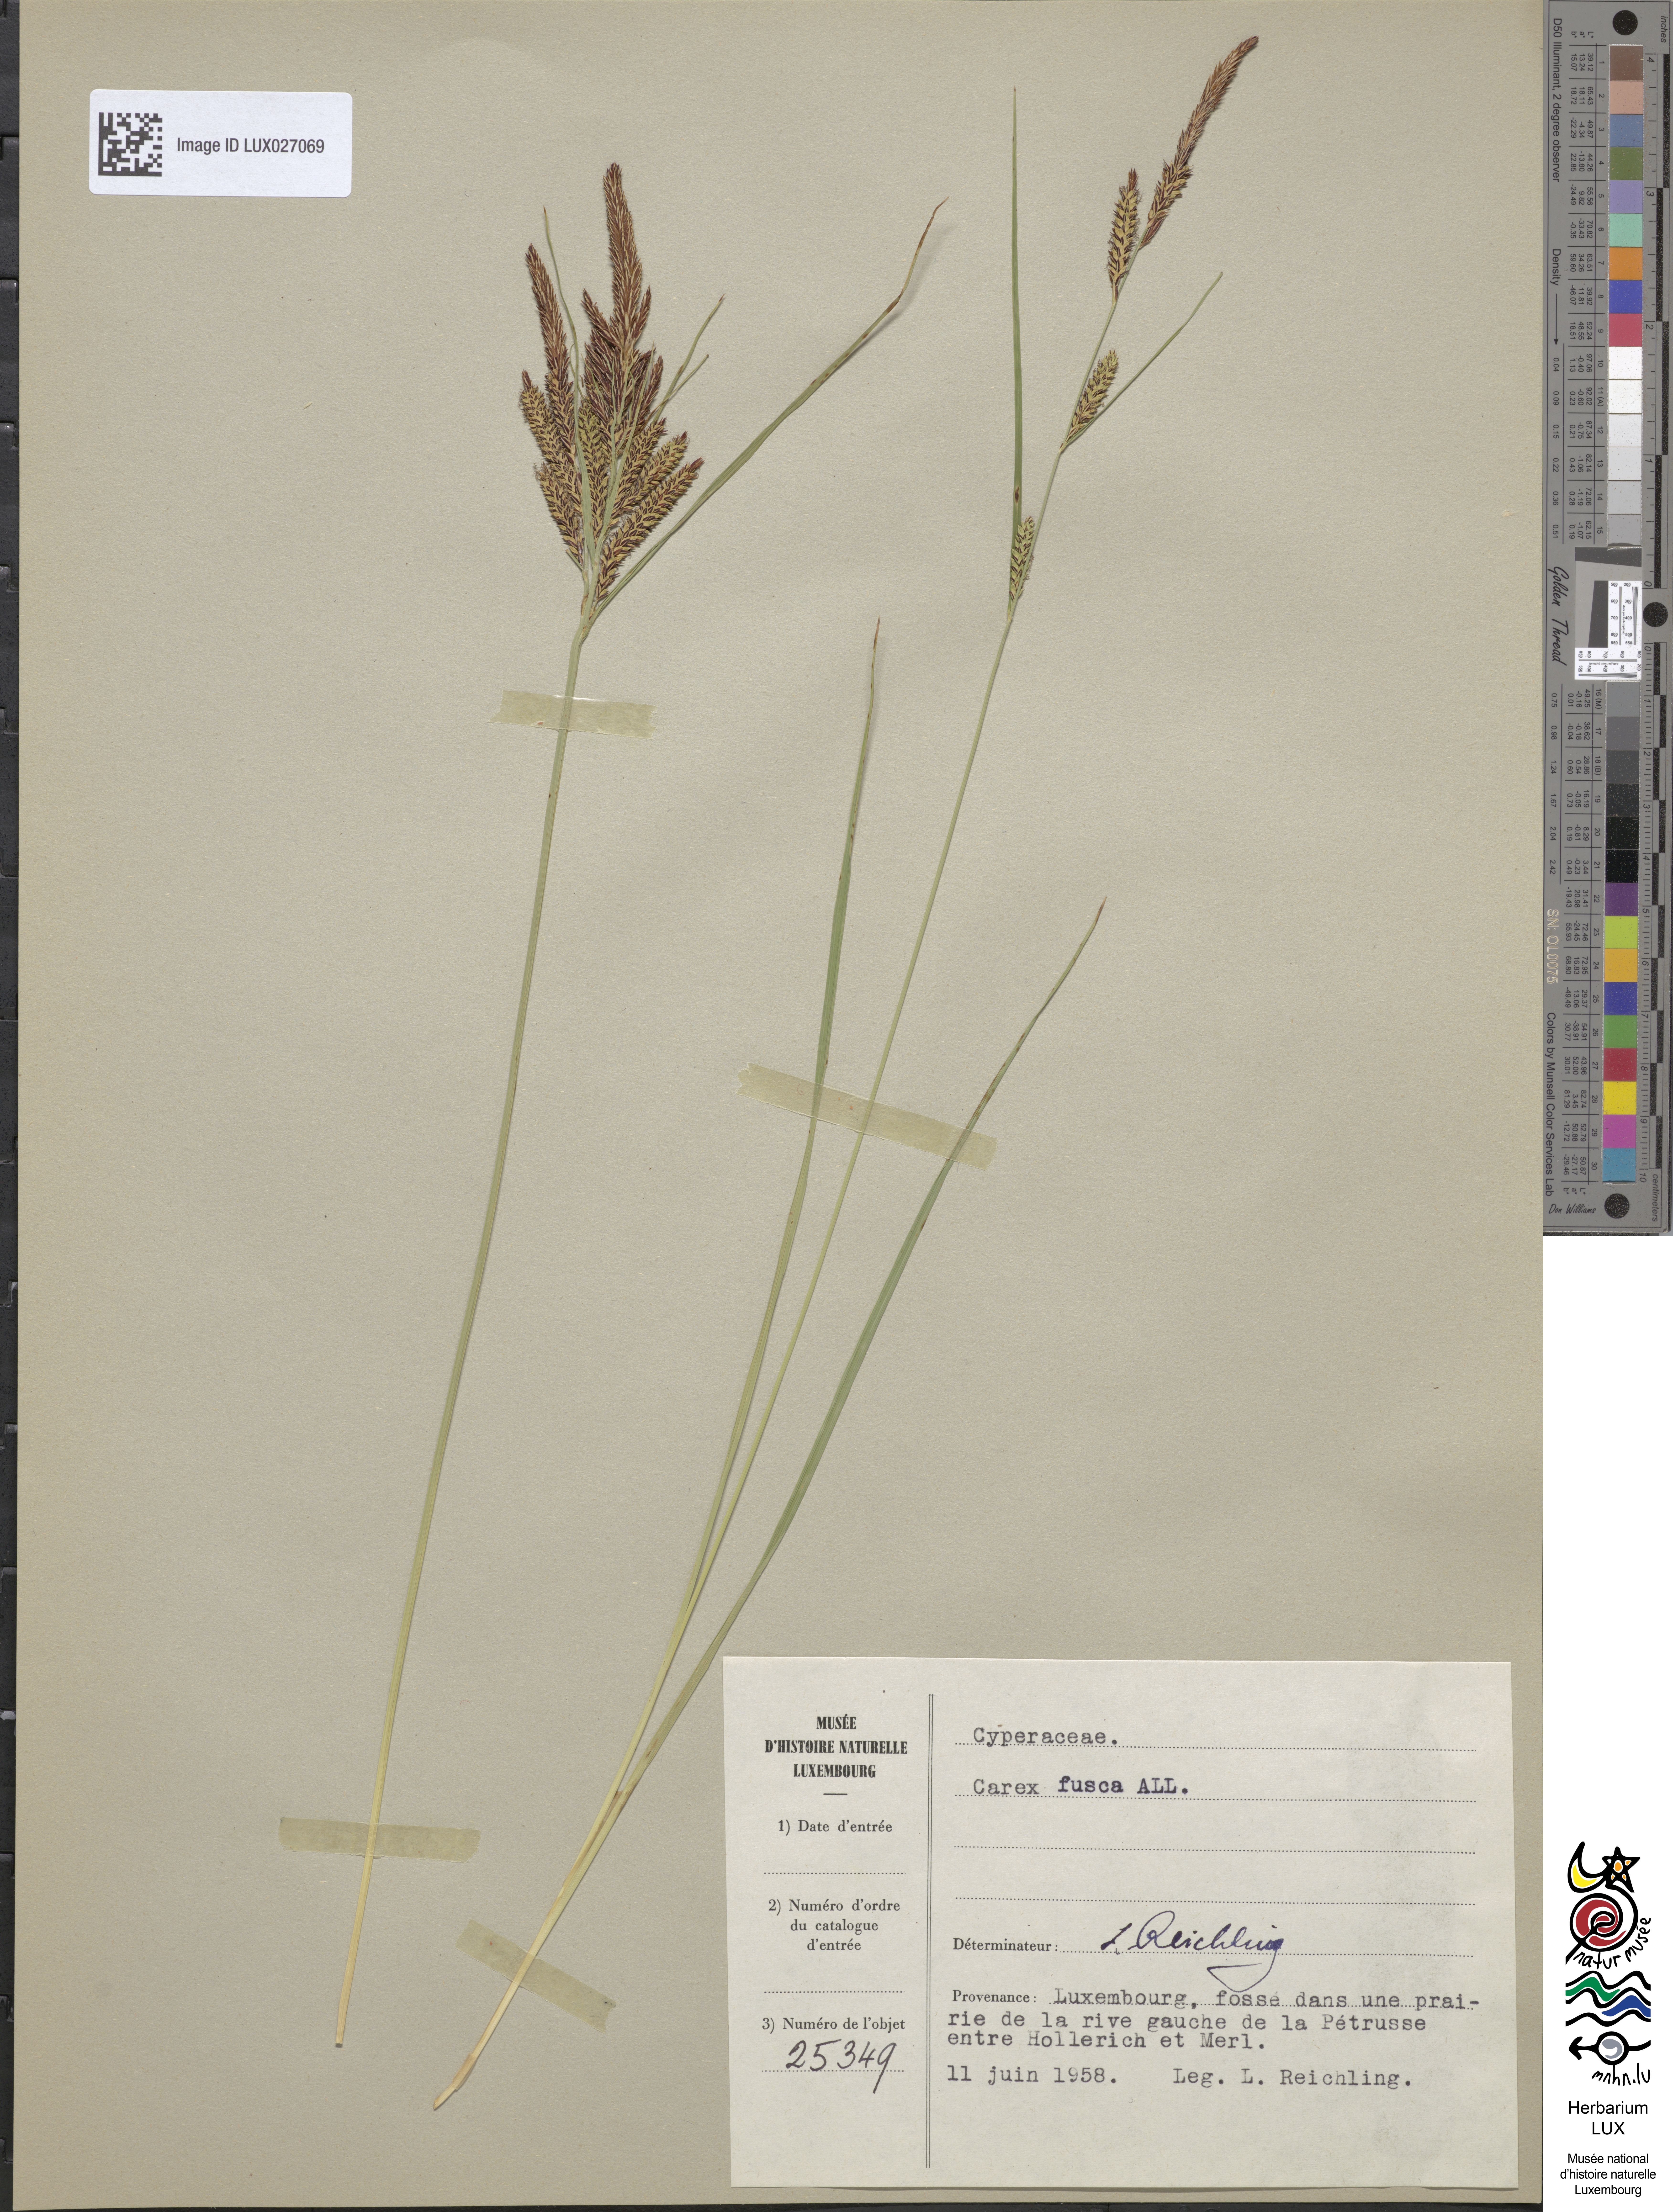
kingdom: Plantae
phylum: Tracheophyta
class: Liliopsida
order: Poales
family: Cyperaceae
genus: Carex
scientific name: Carex nigra
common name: Common sedge
